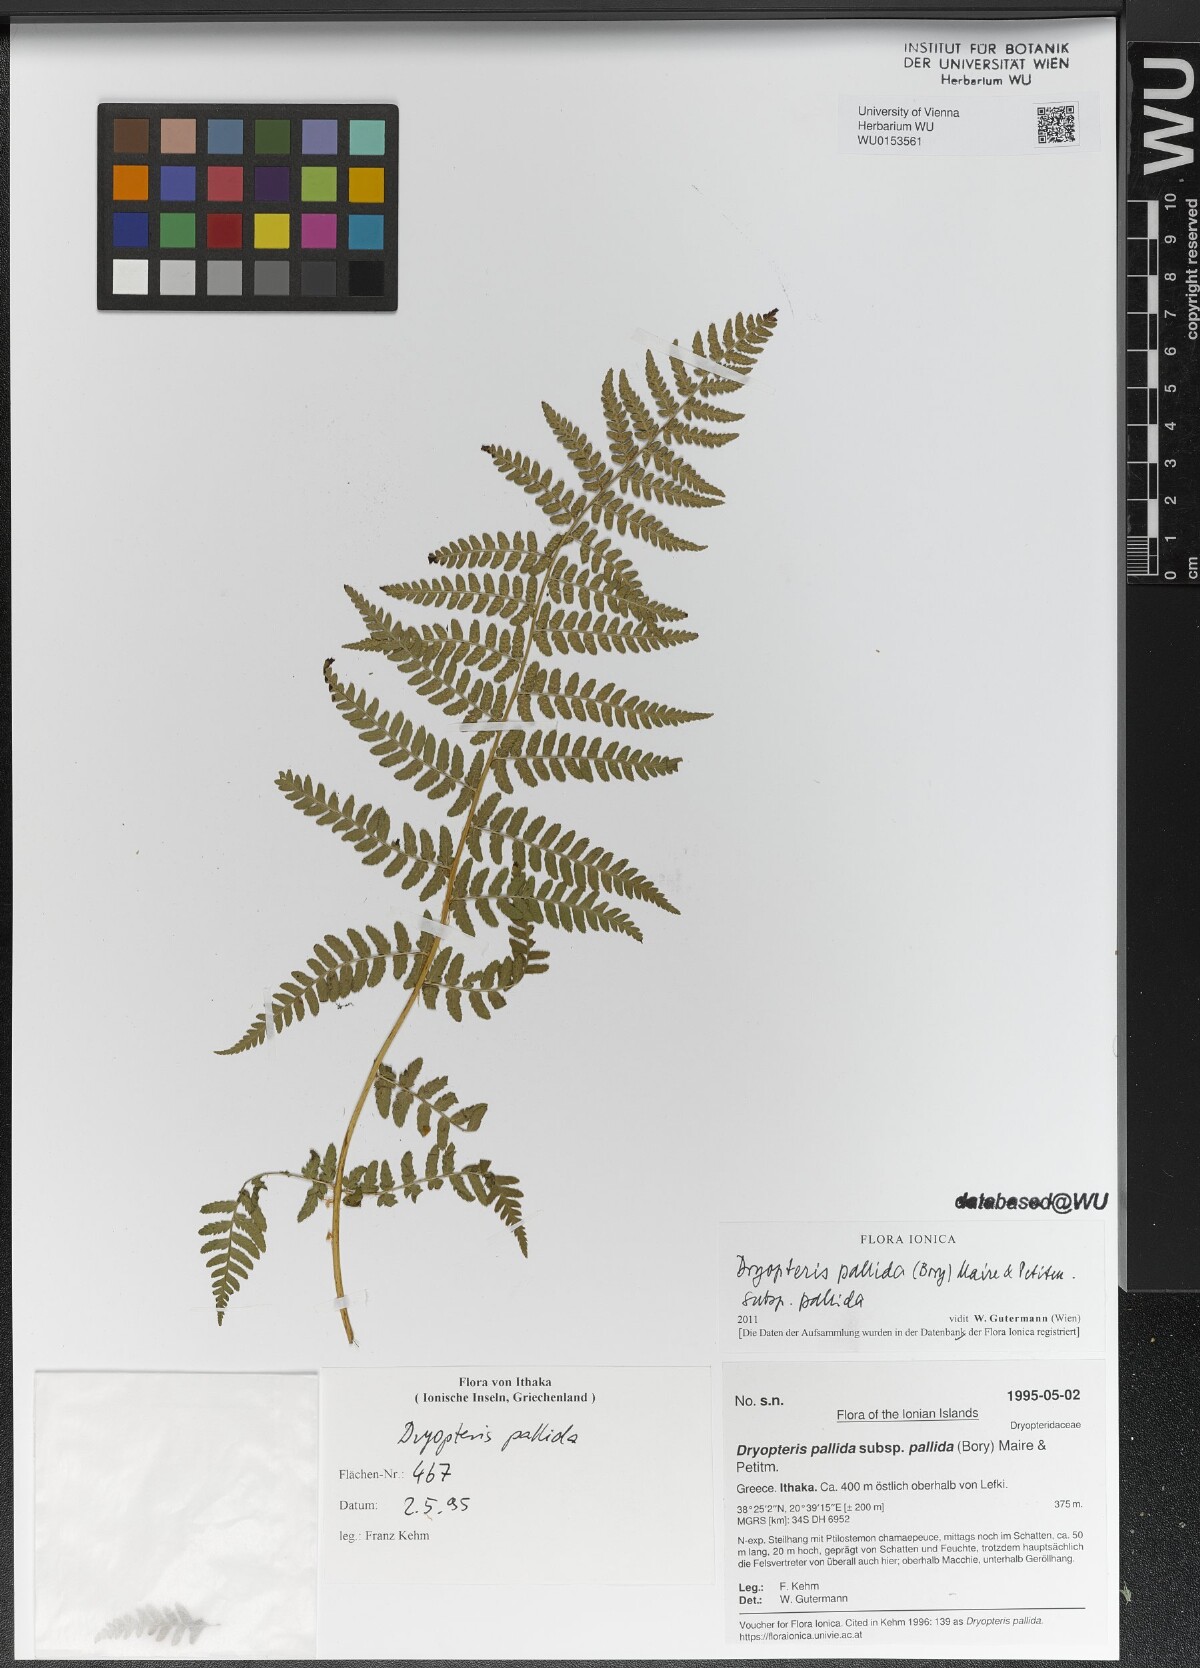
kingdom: Plantae
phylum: Tracheophyta
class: Polypodiopsida
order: Polypodiales
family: Dryopteridaceae
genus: Dryopteris
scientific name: Dryopteris pallida
